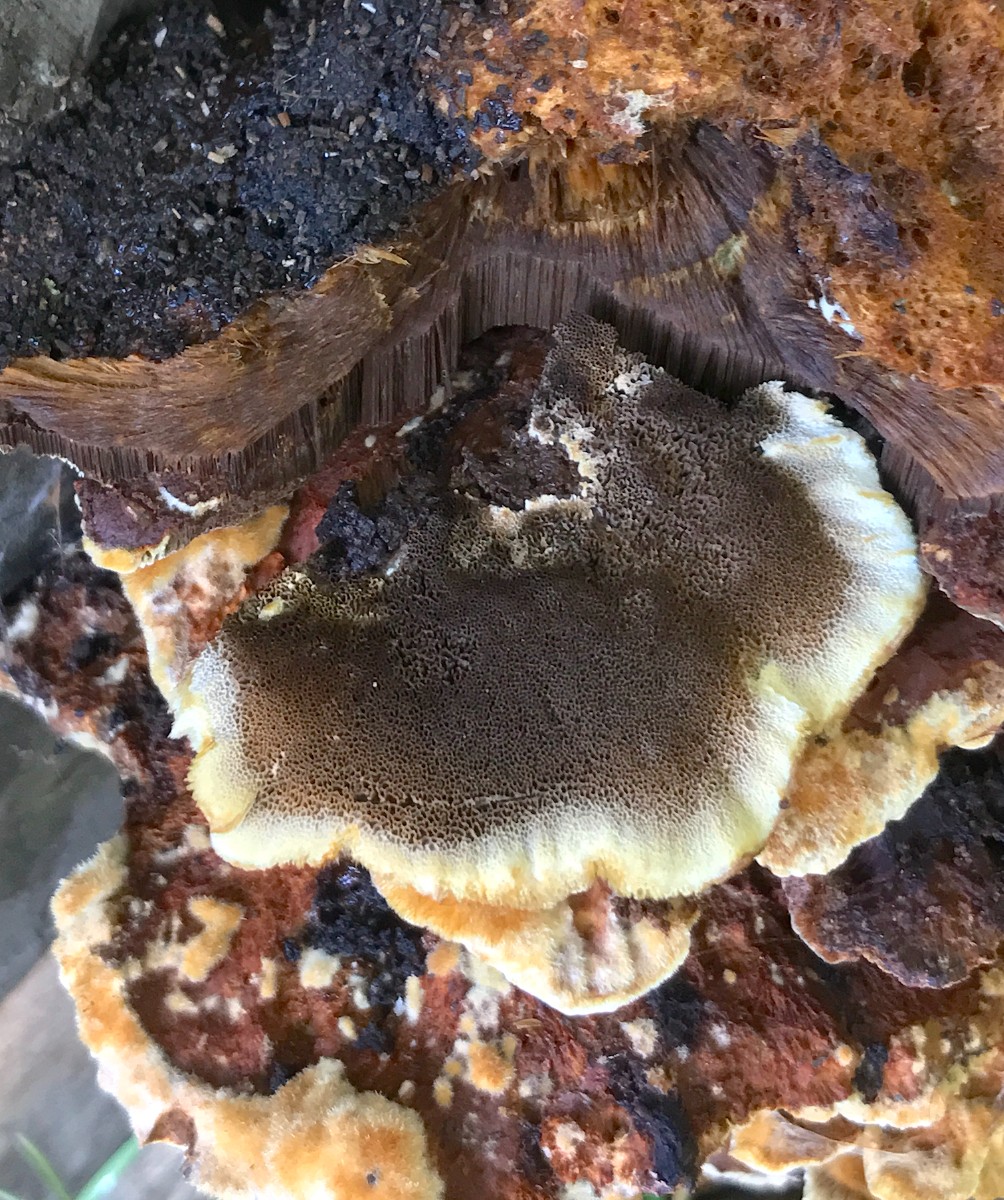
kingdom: Fungi
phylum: Basidiomycota
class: Agaricomycetes
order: Hymenochaetales
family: Hymenochaetaceae
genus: Inonotus
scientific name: Inonotus cuticularis
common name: kroghåret spejlporesvamp
